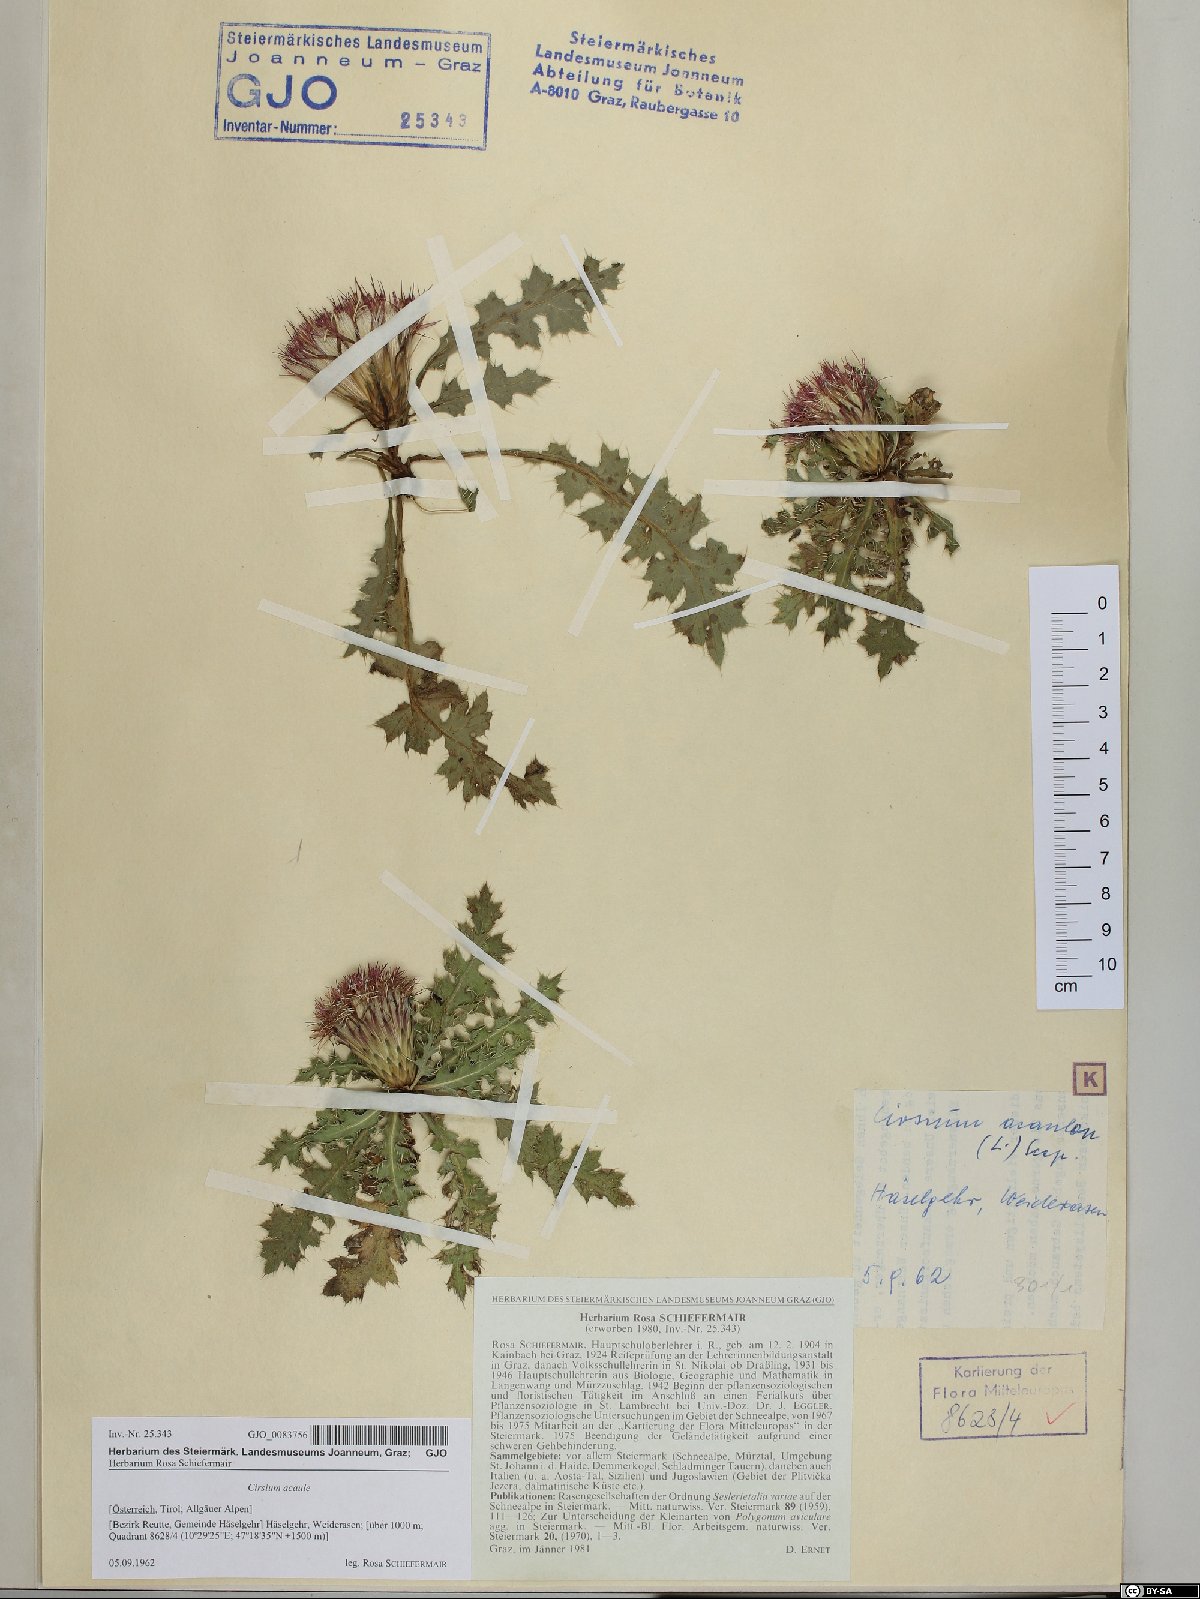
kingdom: Plantae
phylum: Tracheophyta
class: Magnoliopsida
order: Asterales
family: Asteraceae
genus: Cirsium
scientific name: Cirsium acaulon
